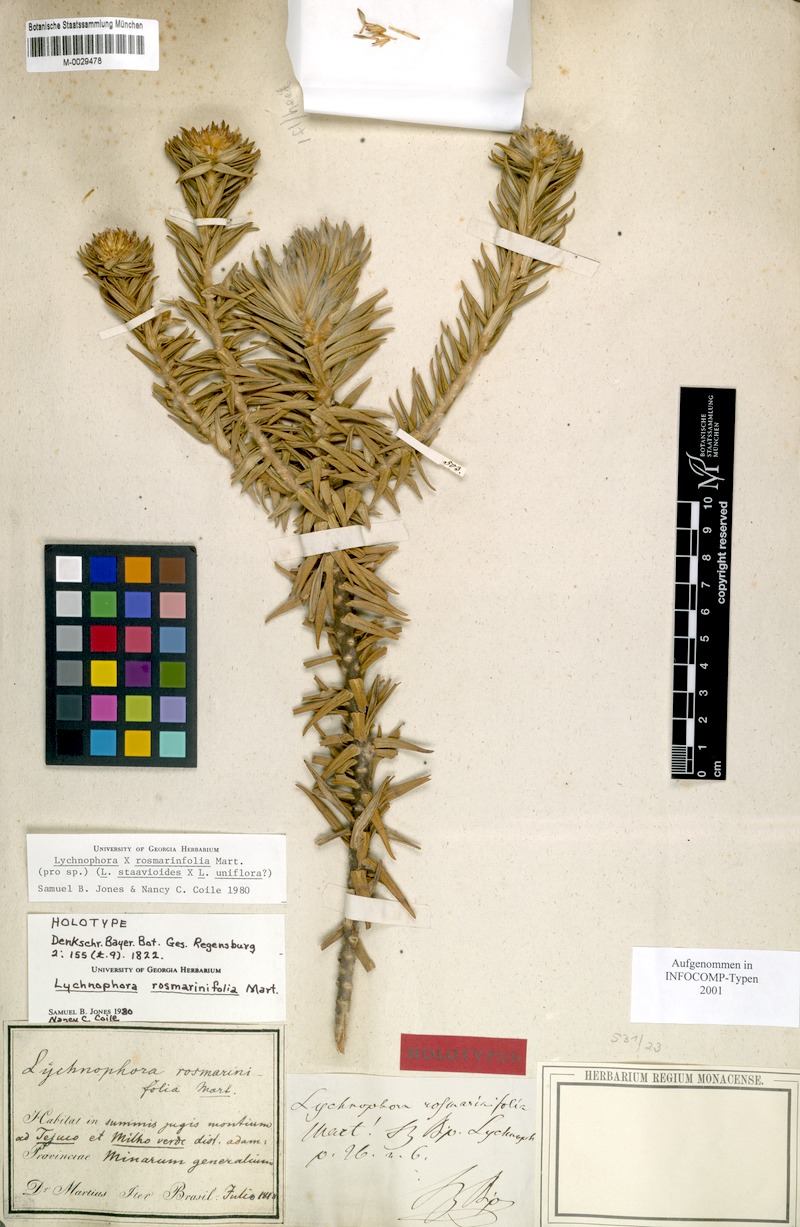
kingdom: Plantae
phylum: Tracheophyta
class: Magnoliopsida
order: Asterales
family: Asteraceae
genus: Lychnophora
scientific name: Lychnophora rosmarinifolia
